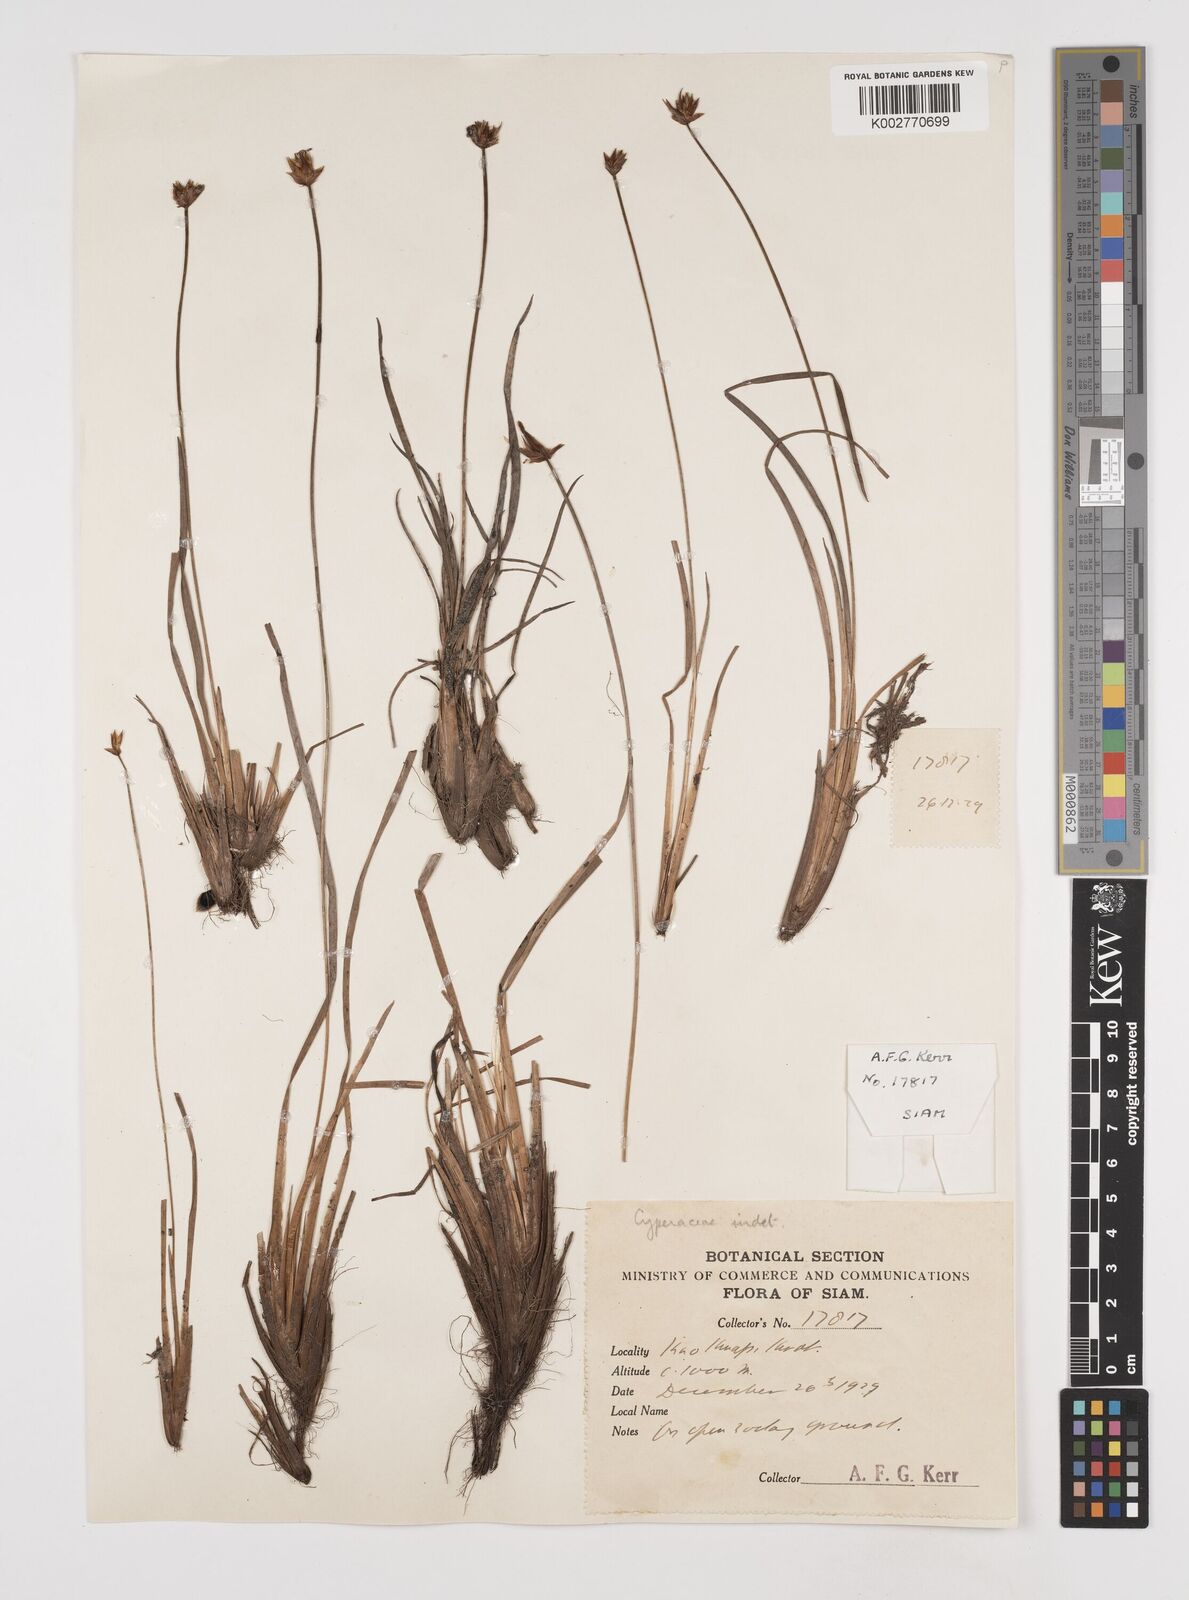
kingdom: Plantae
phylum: Tracheophyta
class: Liliopsida
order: Poales
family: Cyperaceae
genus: Rhynchospora
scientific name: Rhynchospora
